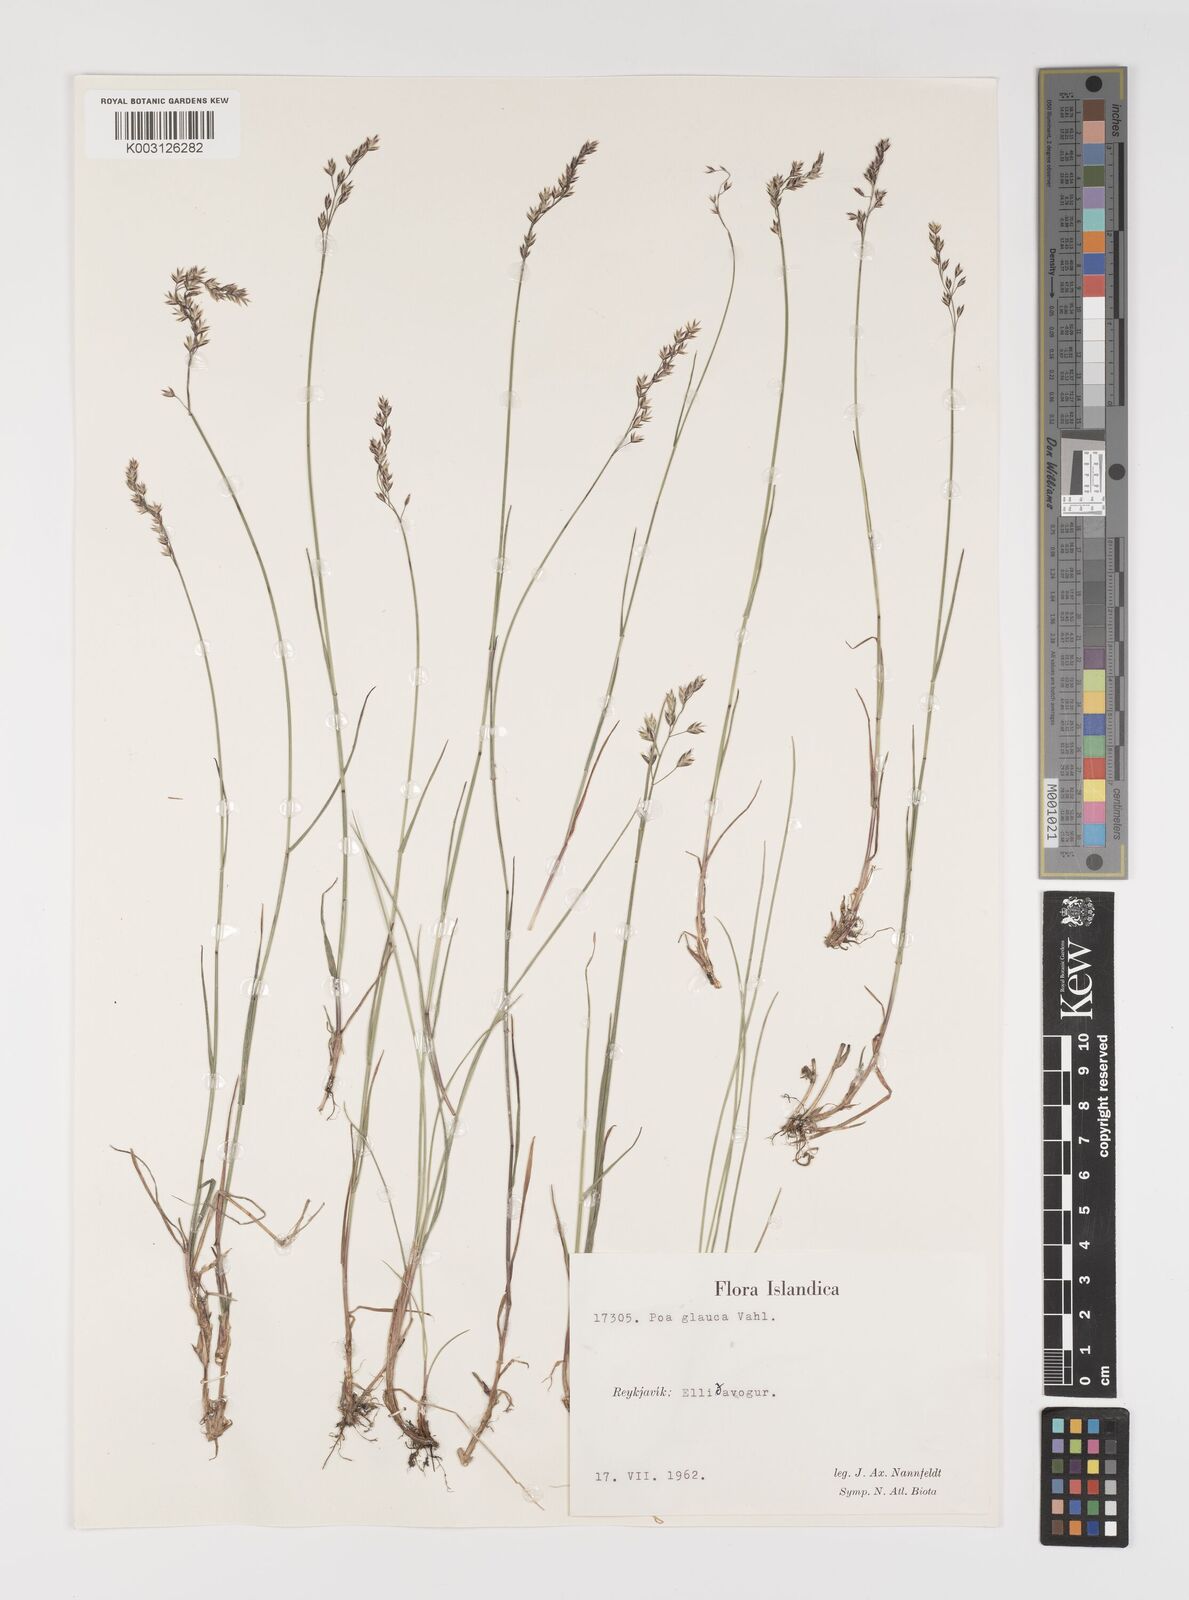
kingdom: Plantae
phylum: Tracheophyta
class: Liliopsida
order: Poales
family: Poaceae
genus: Poa
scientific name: Poa glauca
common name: Glaucous bluegrass
